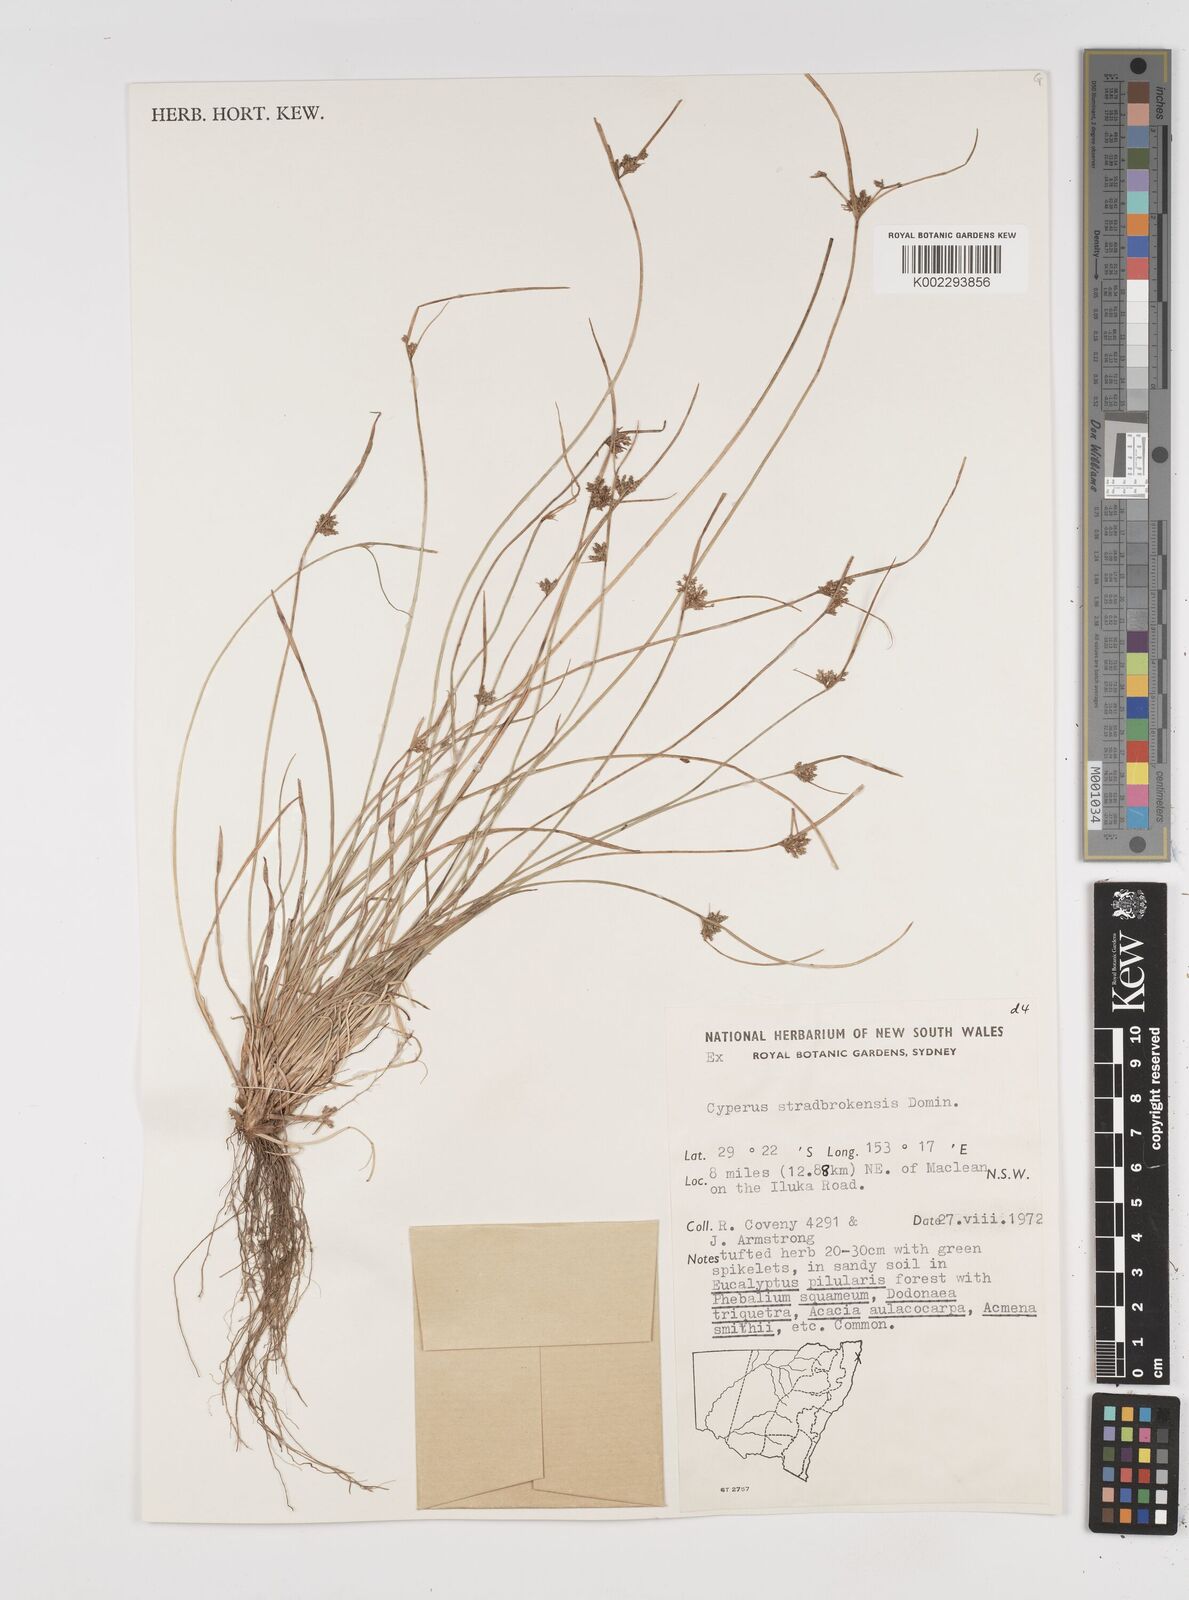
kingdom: Plantae
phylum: Tracheophyta
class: Liliopsida
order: Poales
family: Cyperaceae
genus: Cyperus
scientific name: Cyperus stradbrokensis
